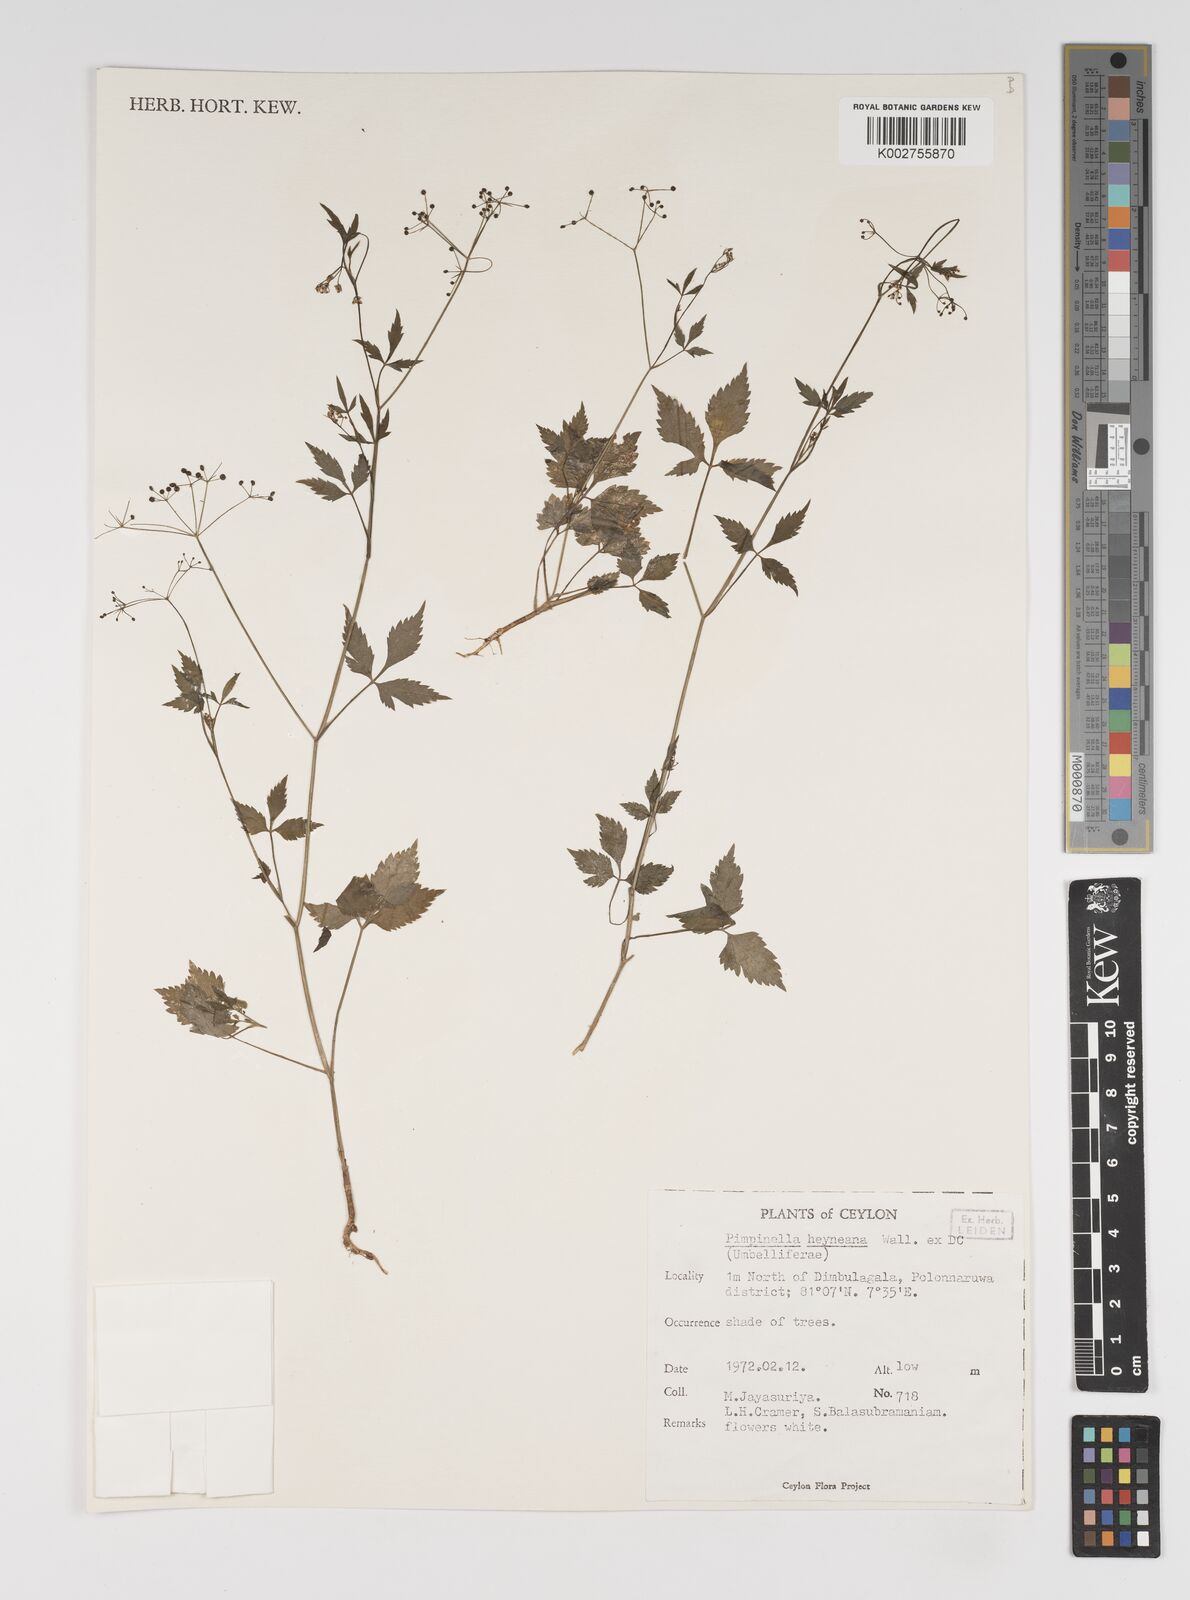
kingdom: Plantae
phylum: Tracheophyta
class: Magnoliopsida
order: Apiales
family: Apiaceae
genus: Pimpinella
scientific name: Pimpinella heyneana
